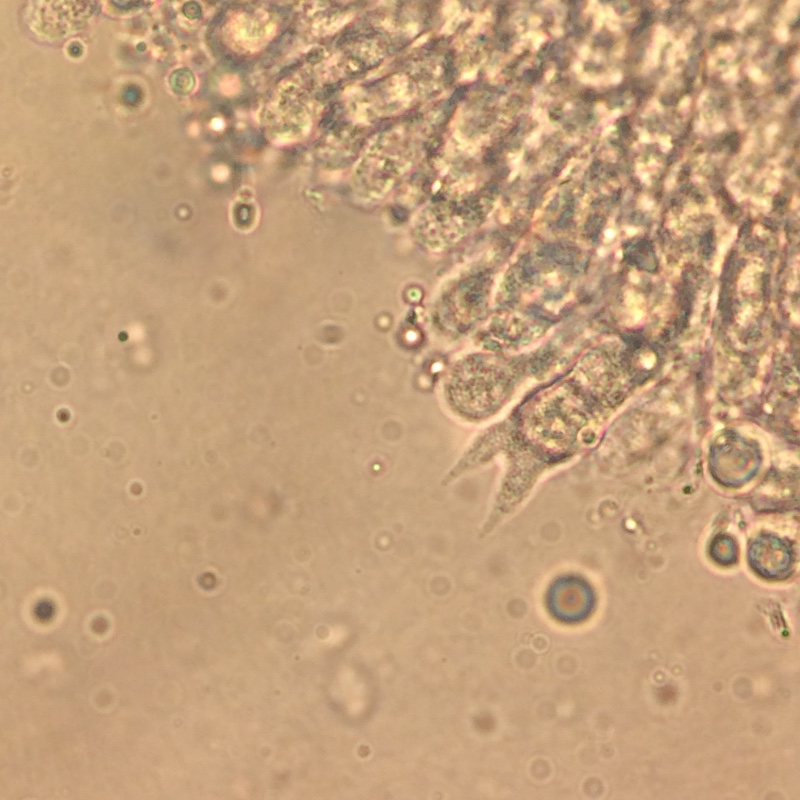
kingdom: Fungi
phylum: Basidiomycota
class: Agaricomycetes
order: Agaricales
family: Mycenaceae
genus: Mycena
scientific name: Mycena galericulata
